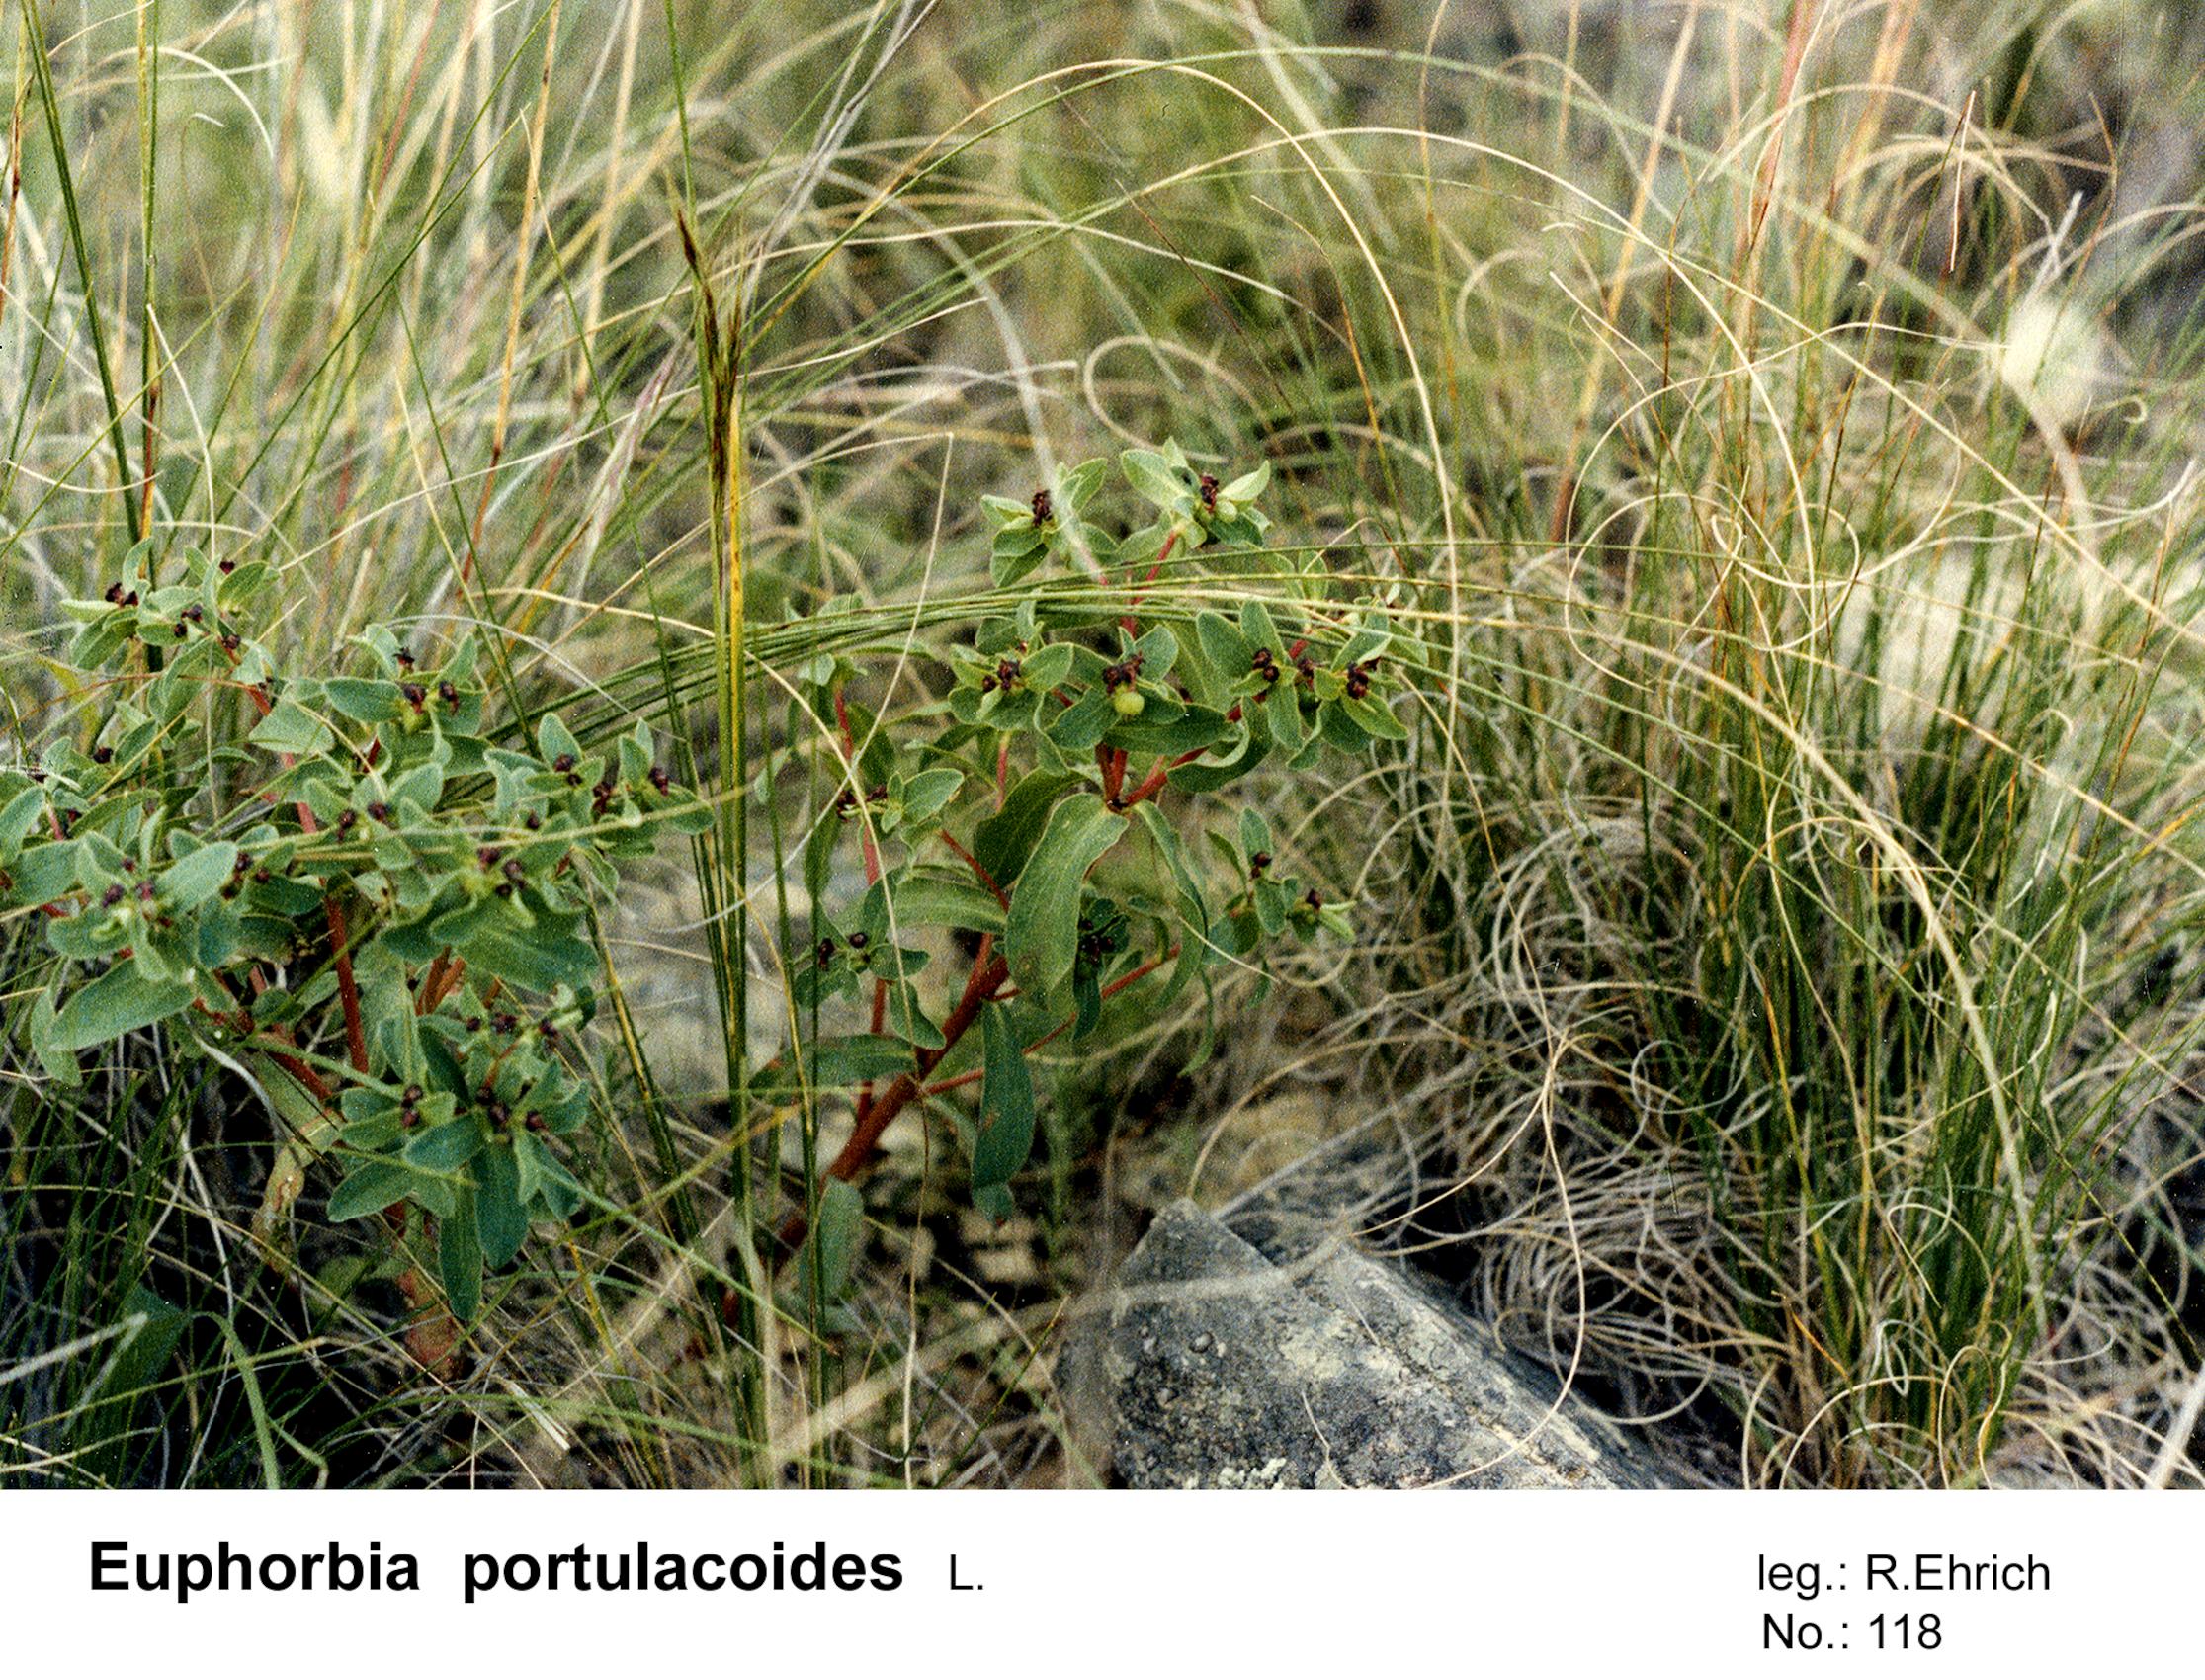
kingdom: Plantae
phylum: Tracheophyta
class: Magnoliopsida
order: Malpighiales
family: Euphorbiaceae
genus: Euphorbia
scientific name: Euphorbia portulacoides
